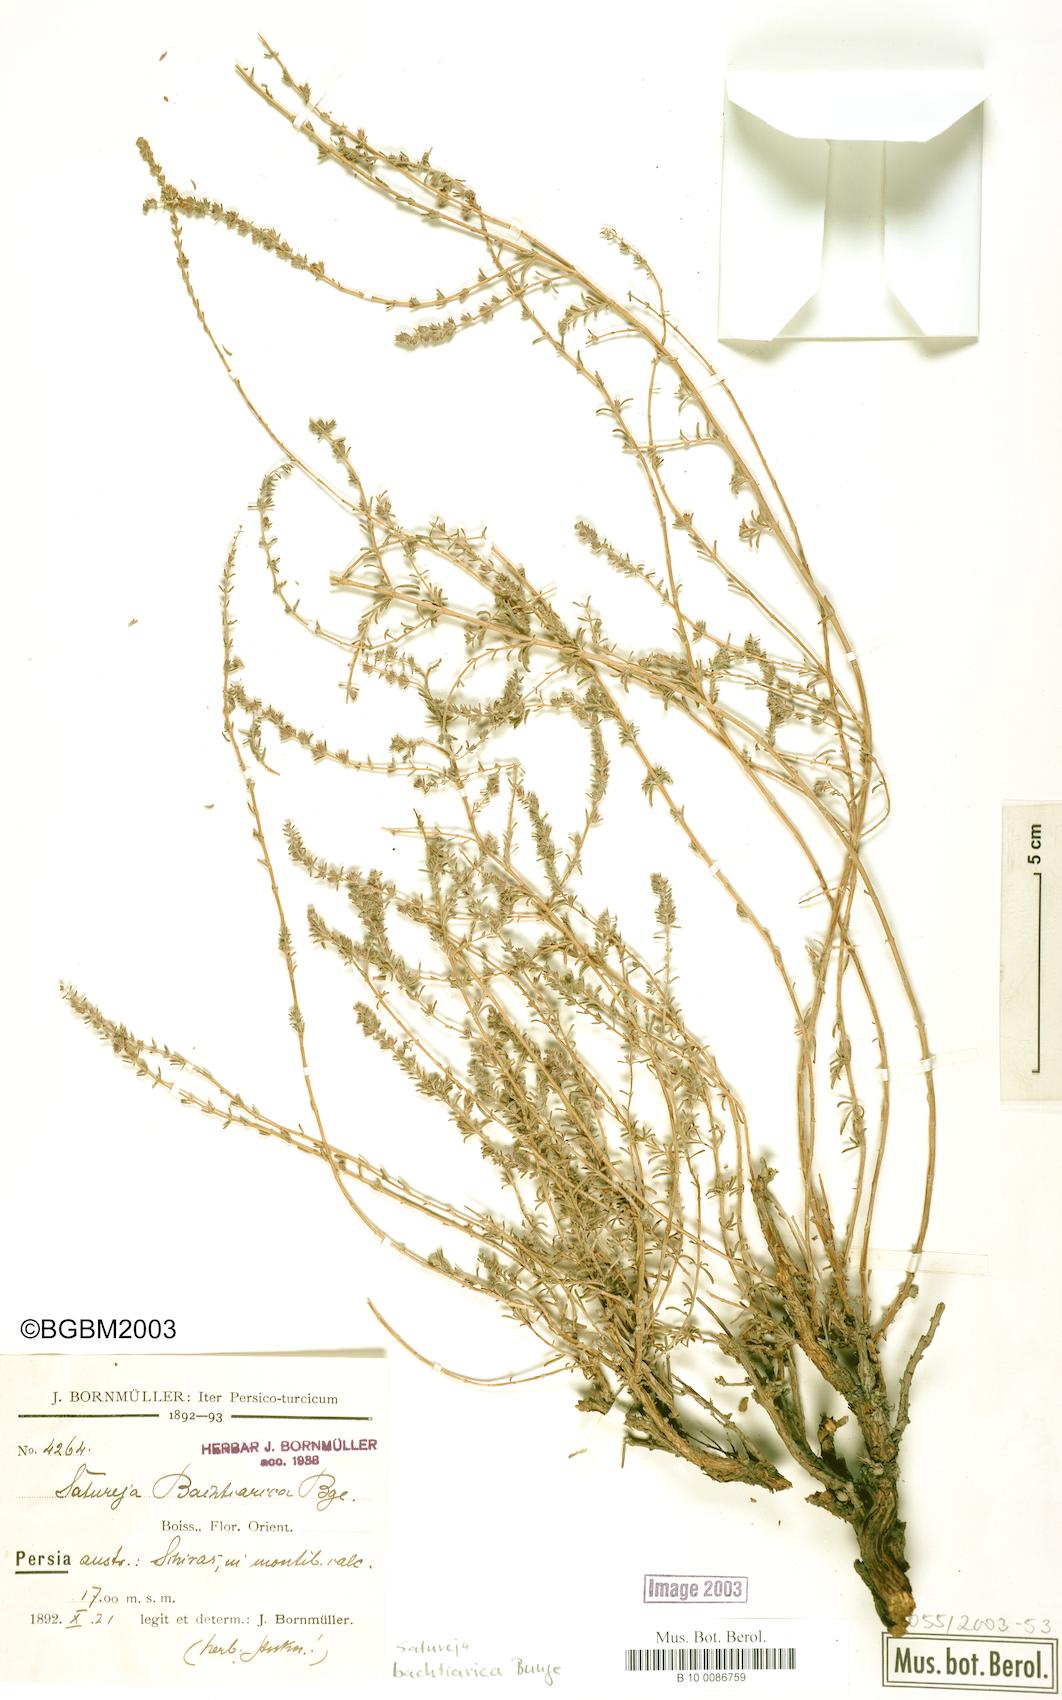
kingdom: Plantae
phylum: Tracheophyta
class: Magnoliopsida
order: Lamiales
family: Lamiaceae
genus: Satureja
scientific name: Satureja bachtiarica
